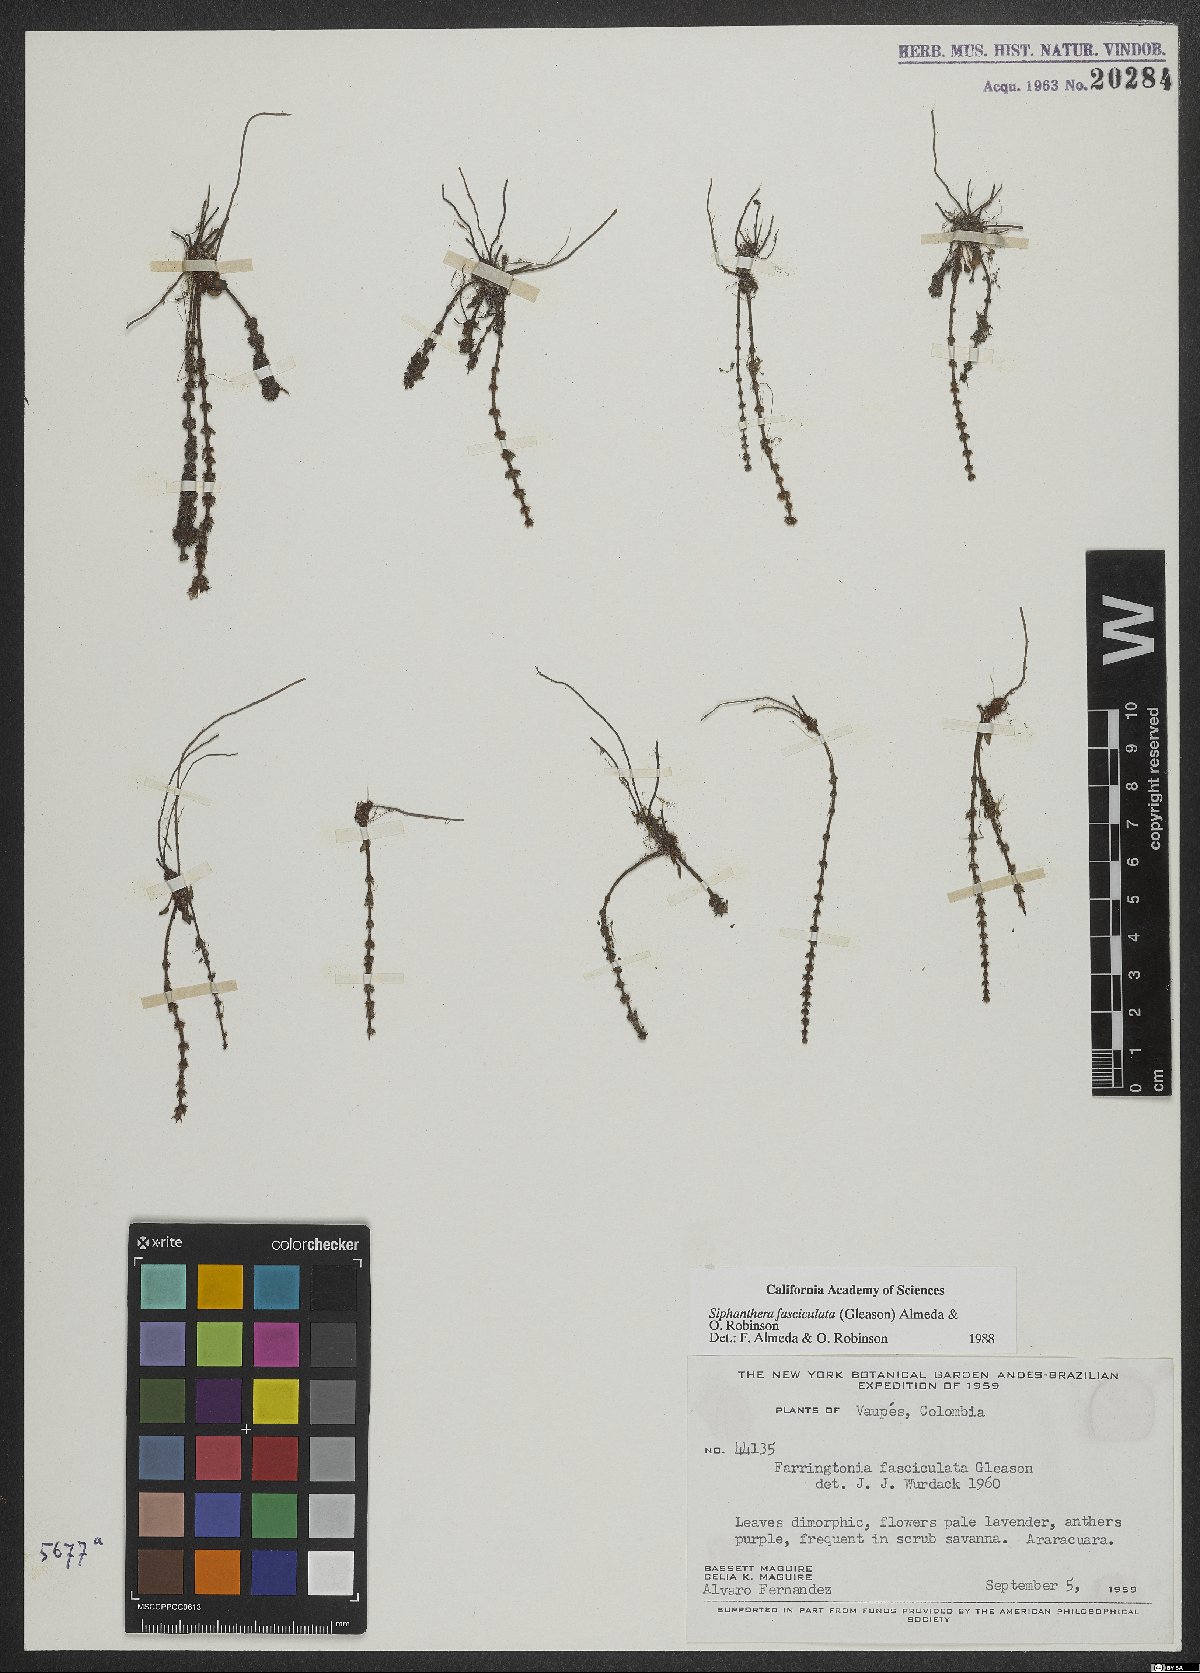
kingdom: Plantae
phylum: Tracheophyta
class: Magnoliopsida
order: Myrtales
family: Melastomataceae
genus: Siphanthera
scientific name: Siphanthera fasciculata
